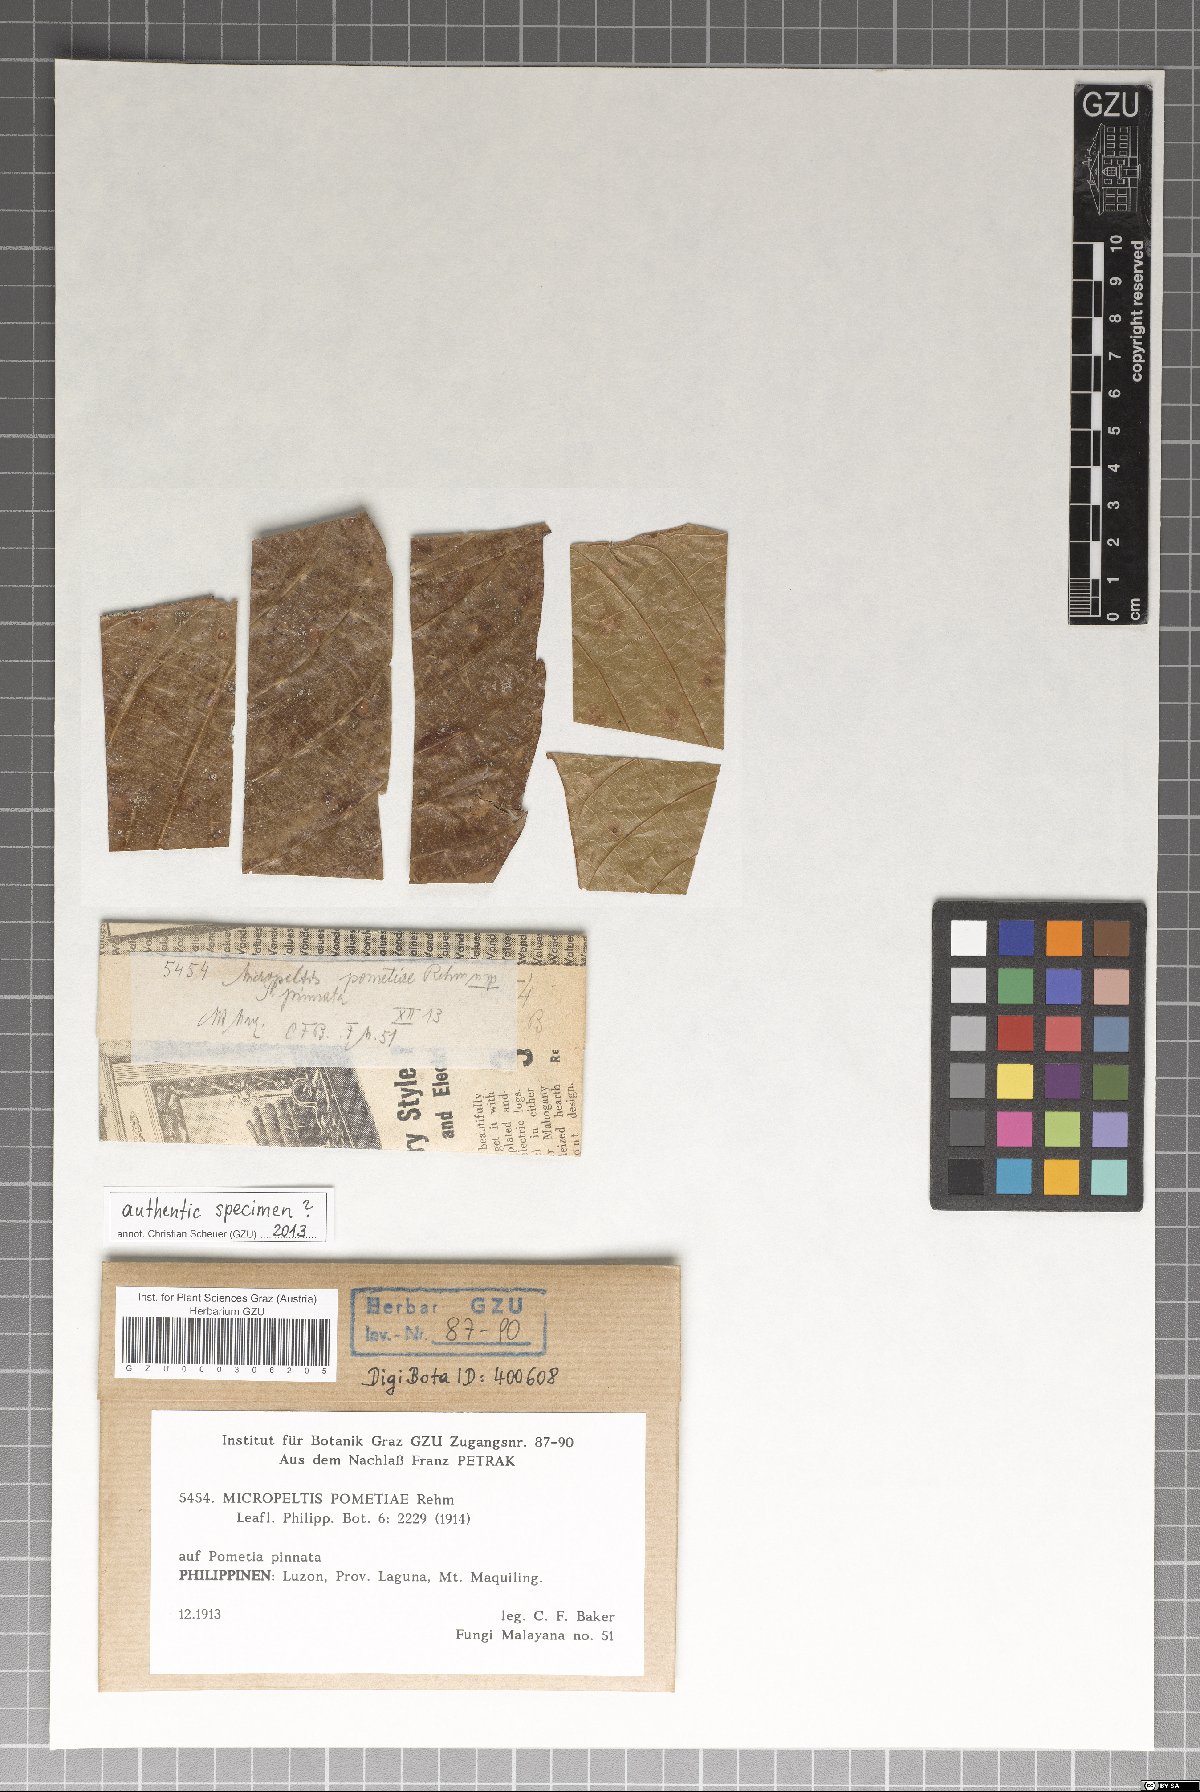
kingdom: Fungi
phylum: Ascomycota
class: Dothideomycetes
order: Microthyriales
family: Micropeltidaceae
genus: Micropeltis
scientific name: Micropeltis pometiae
